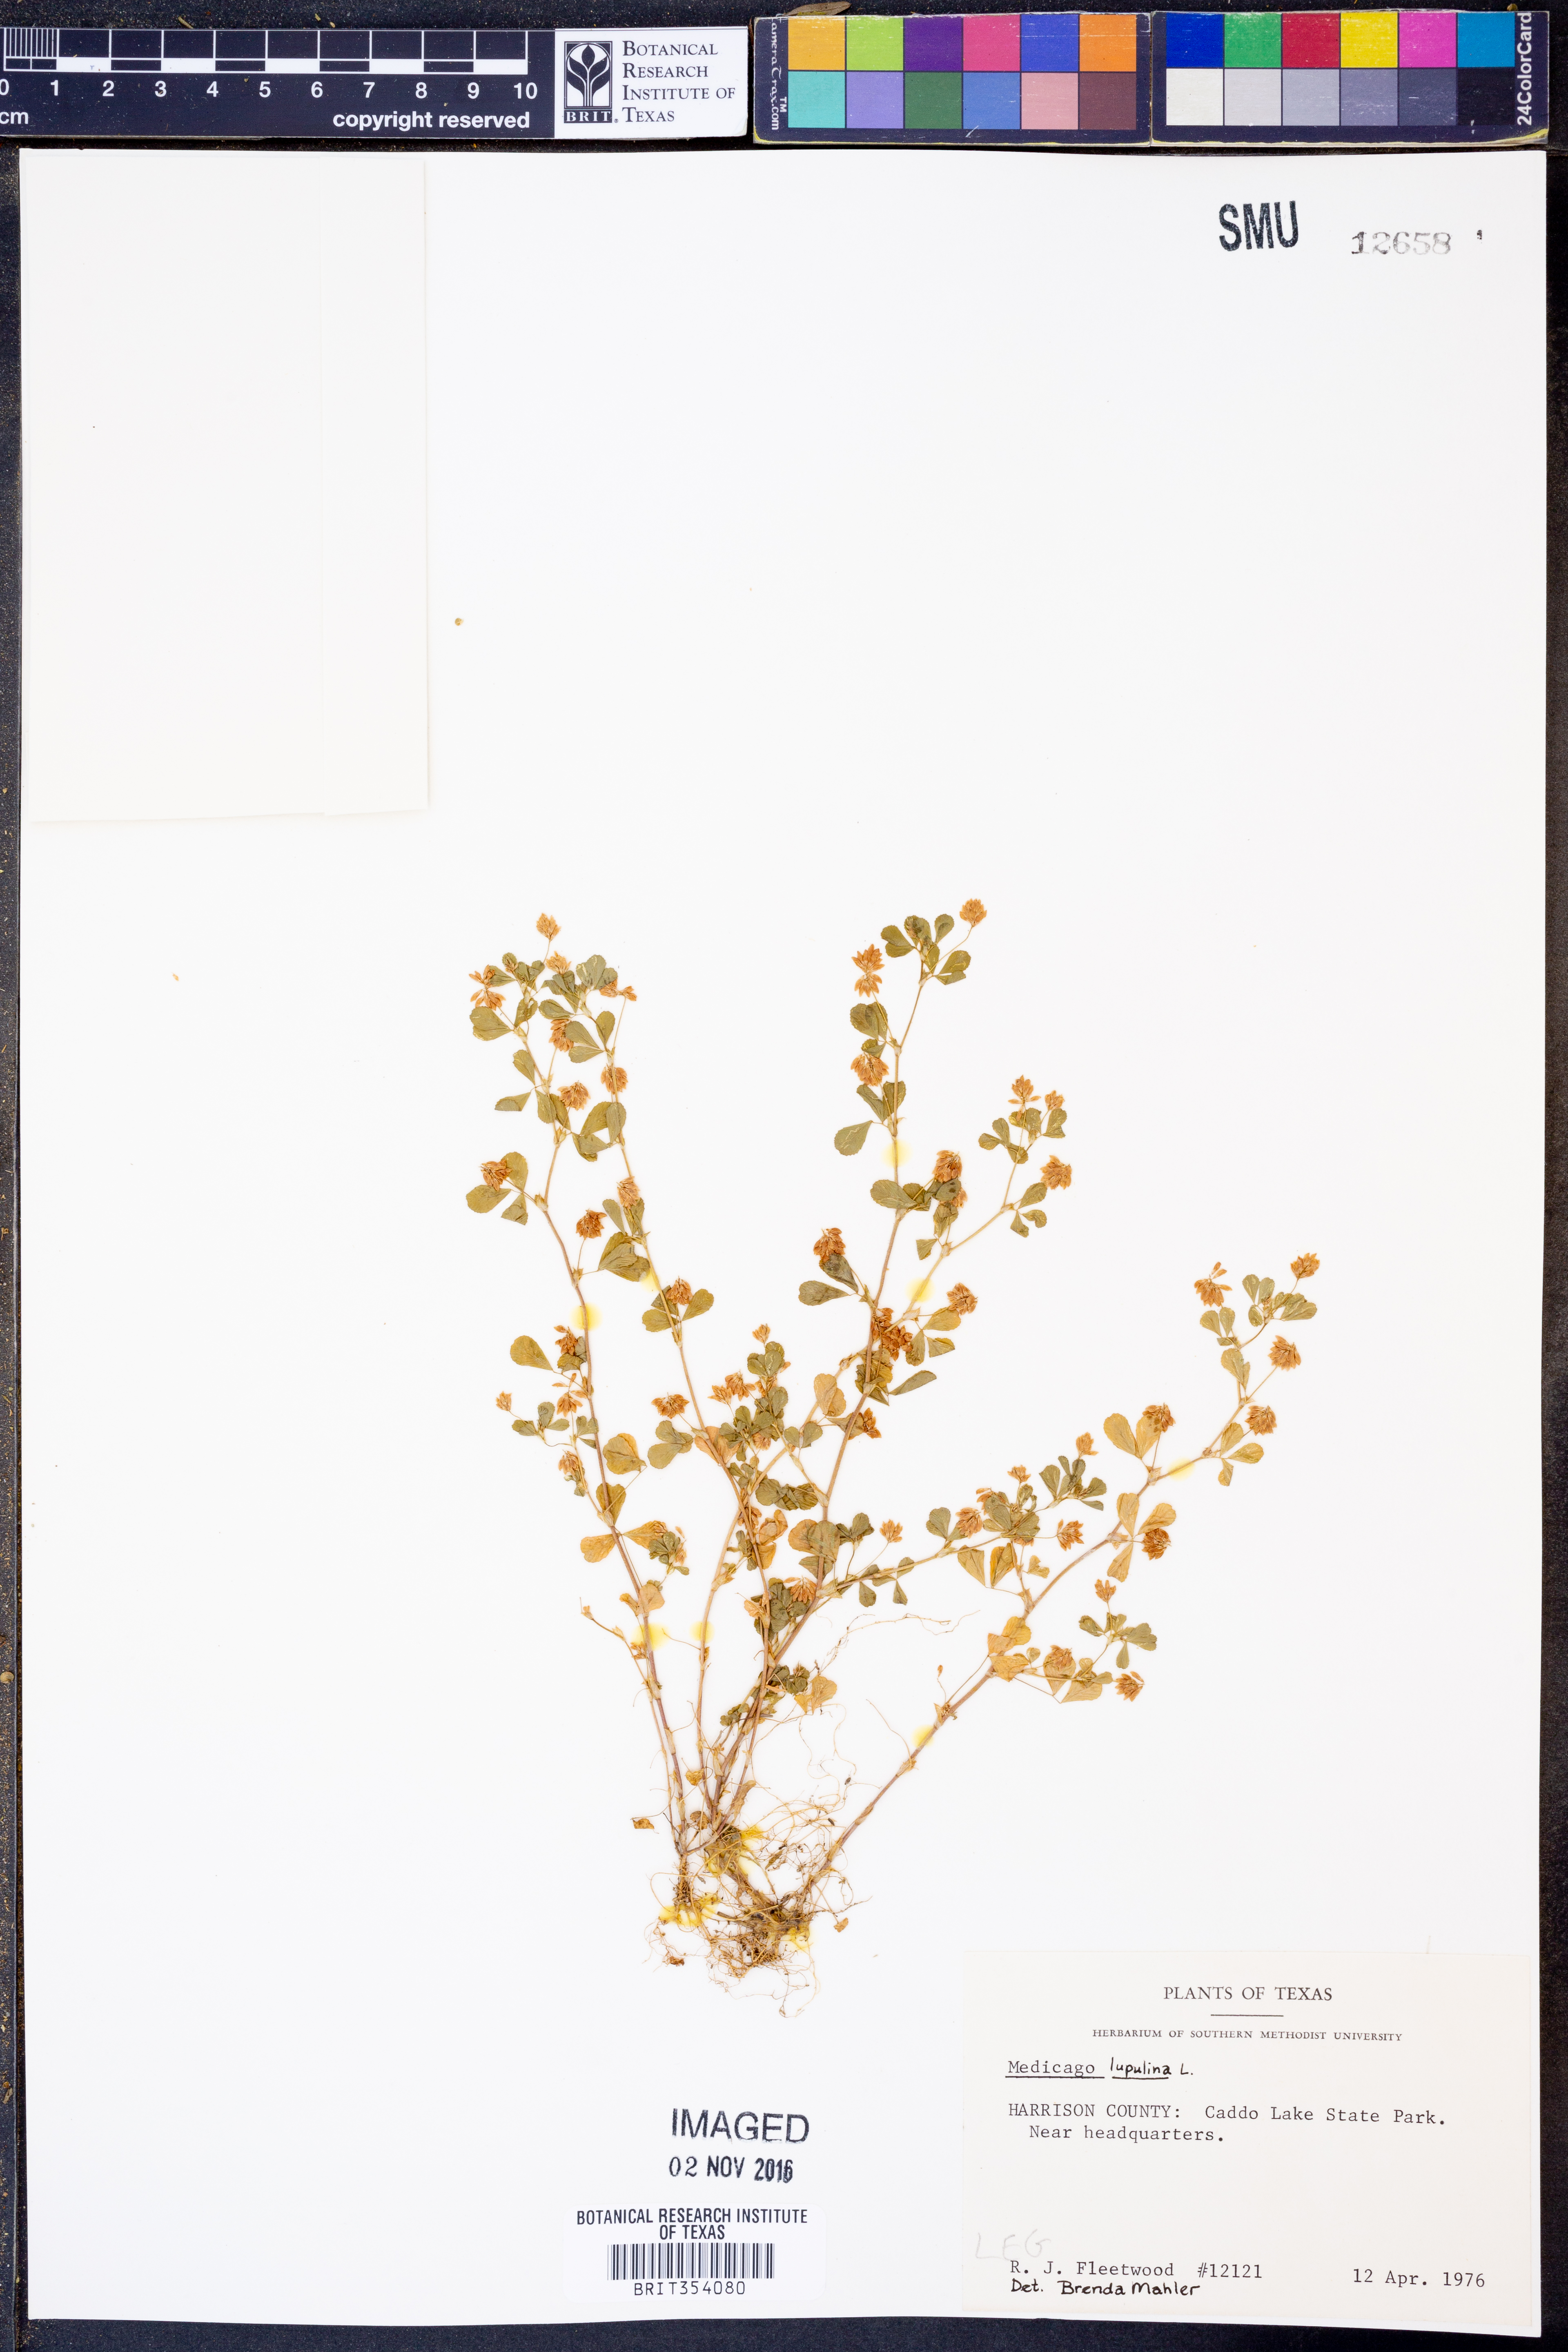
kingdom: Plantae
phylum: Tracheophyta
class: Magnoliopsida
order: Fabales
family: Fabaceae
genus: Medicago
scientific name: Medicago lupulina
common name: Black medick
